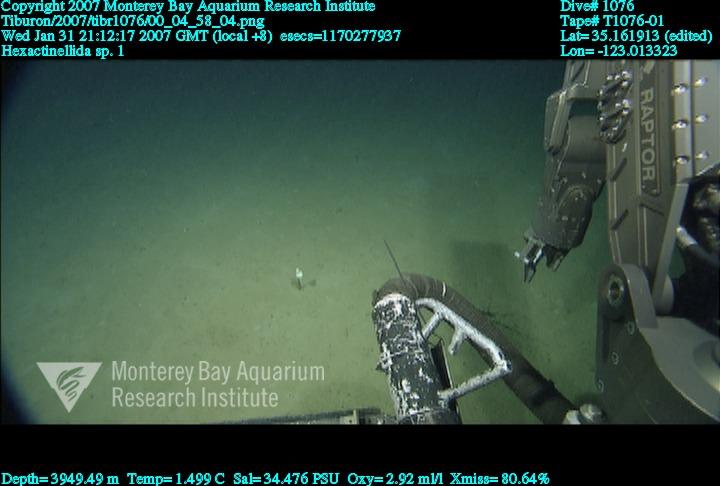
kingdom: Animalia
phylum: Porifera
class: Hexactinellida
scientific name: Hexactinellida
